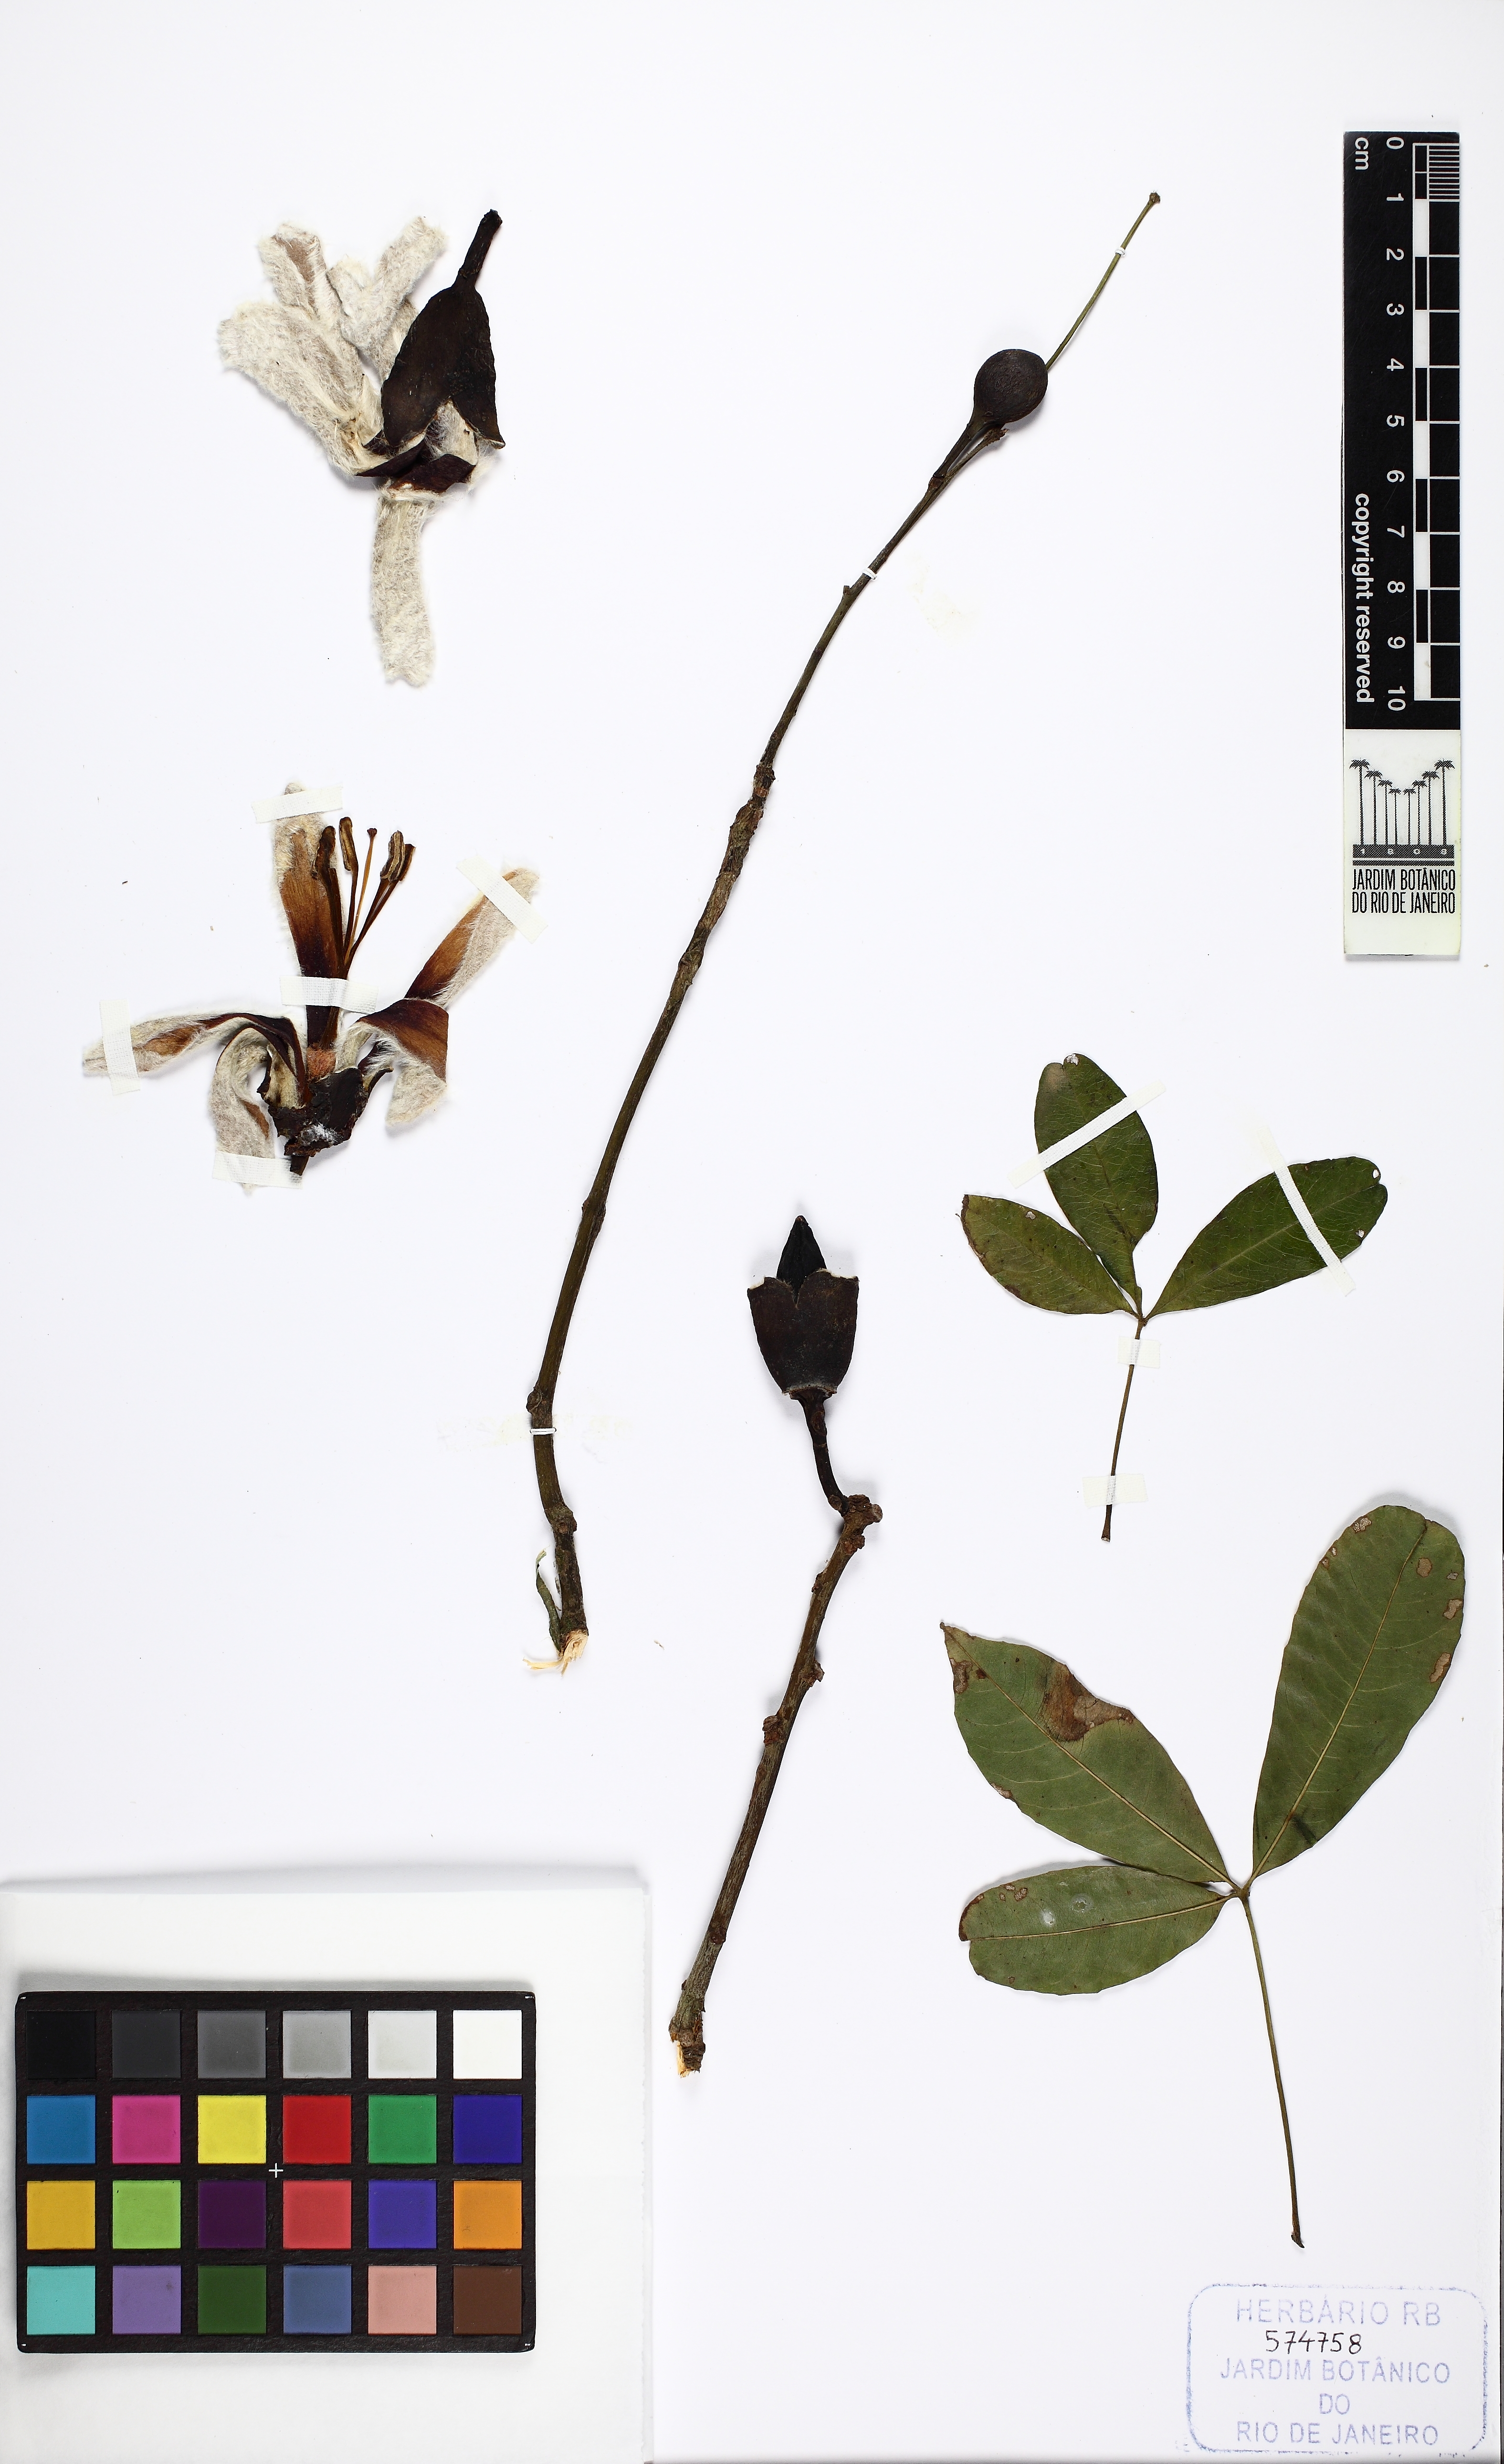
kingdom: Plantae
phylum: Tracheophyta
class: Magnoliopsida
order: Malvales
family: Malvaceae
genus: Ceiba
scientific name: Ceiba erianthos
